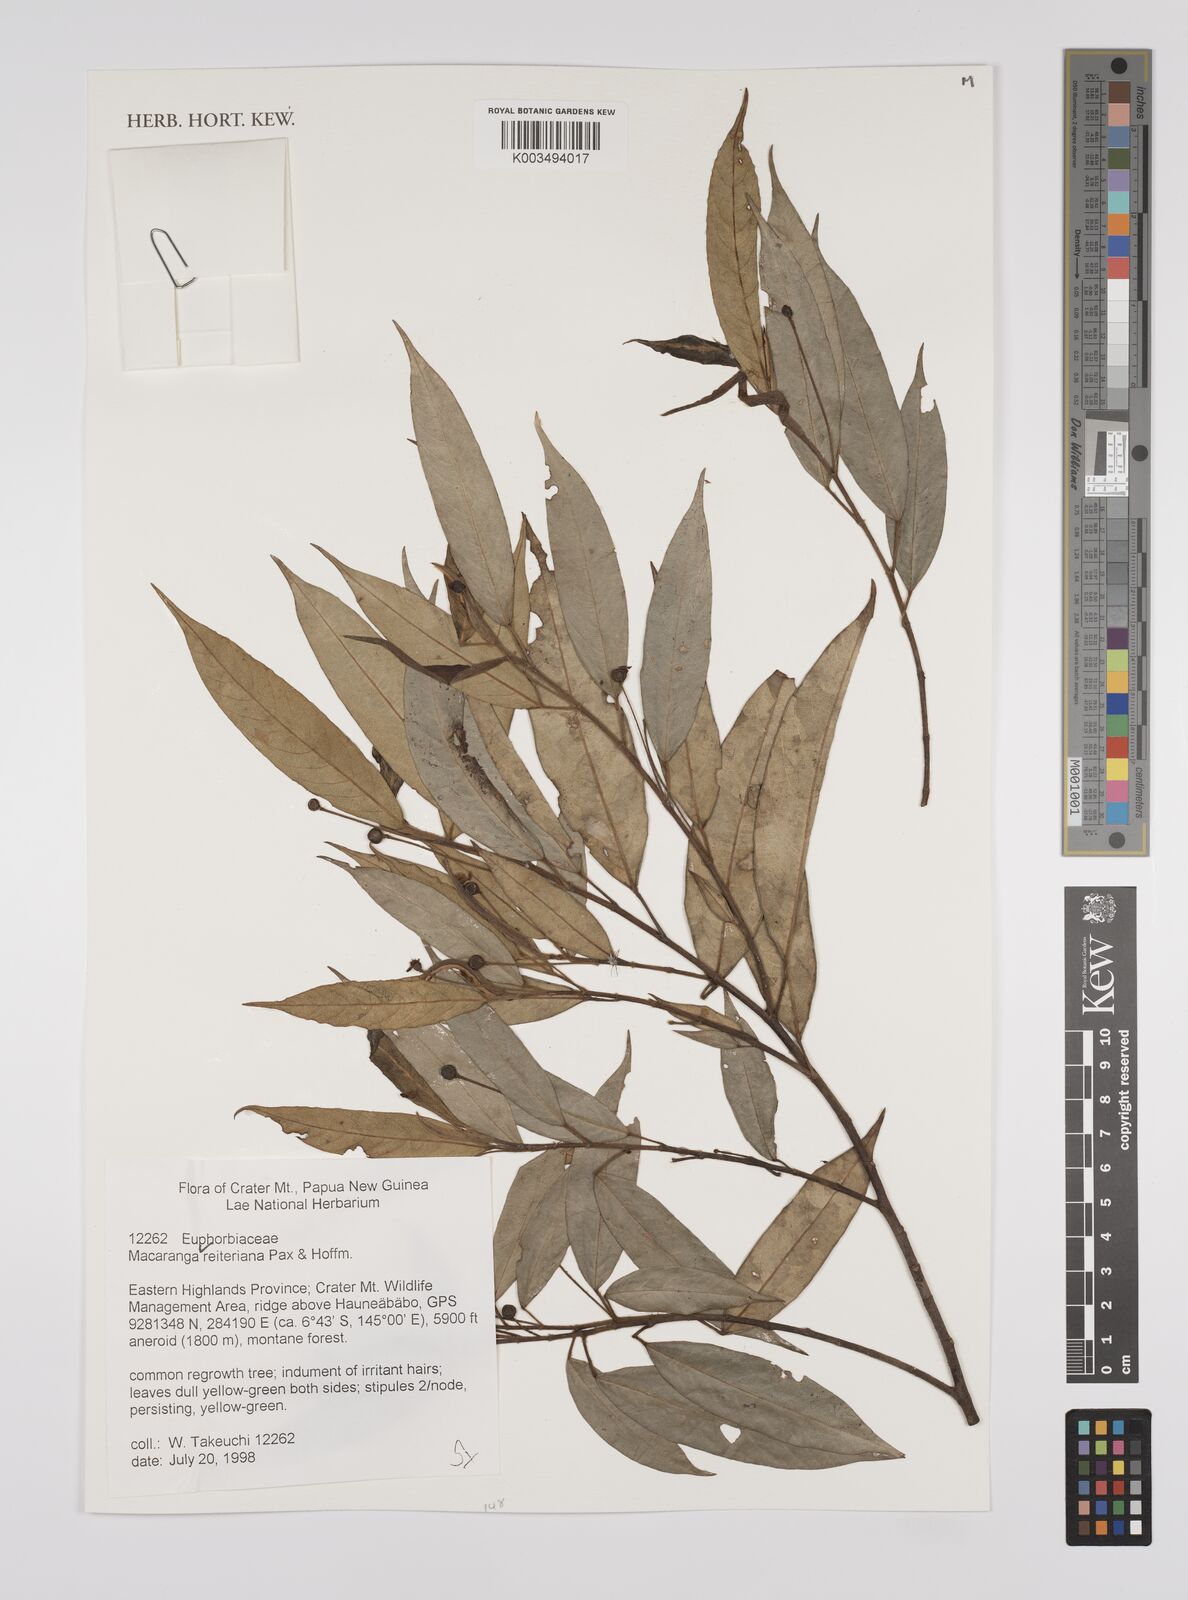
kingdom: Plantae
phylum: Tracheophyta
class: Magnoliopsida
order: Malpighiales
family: Euphorbiaceae
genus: Macaranga
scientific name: Macaranga reiteriana
